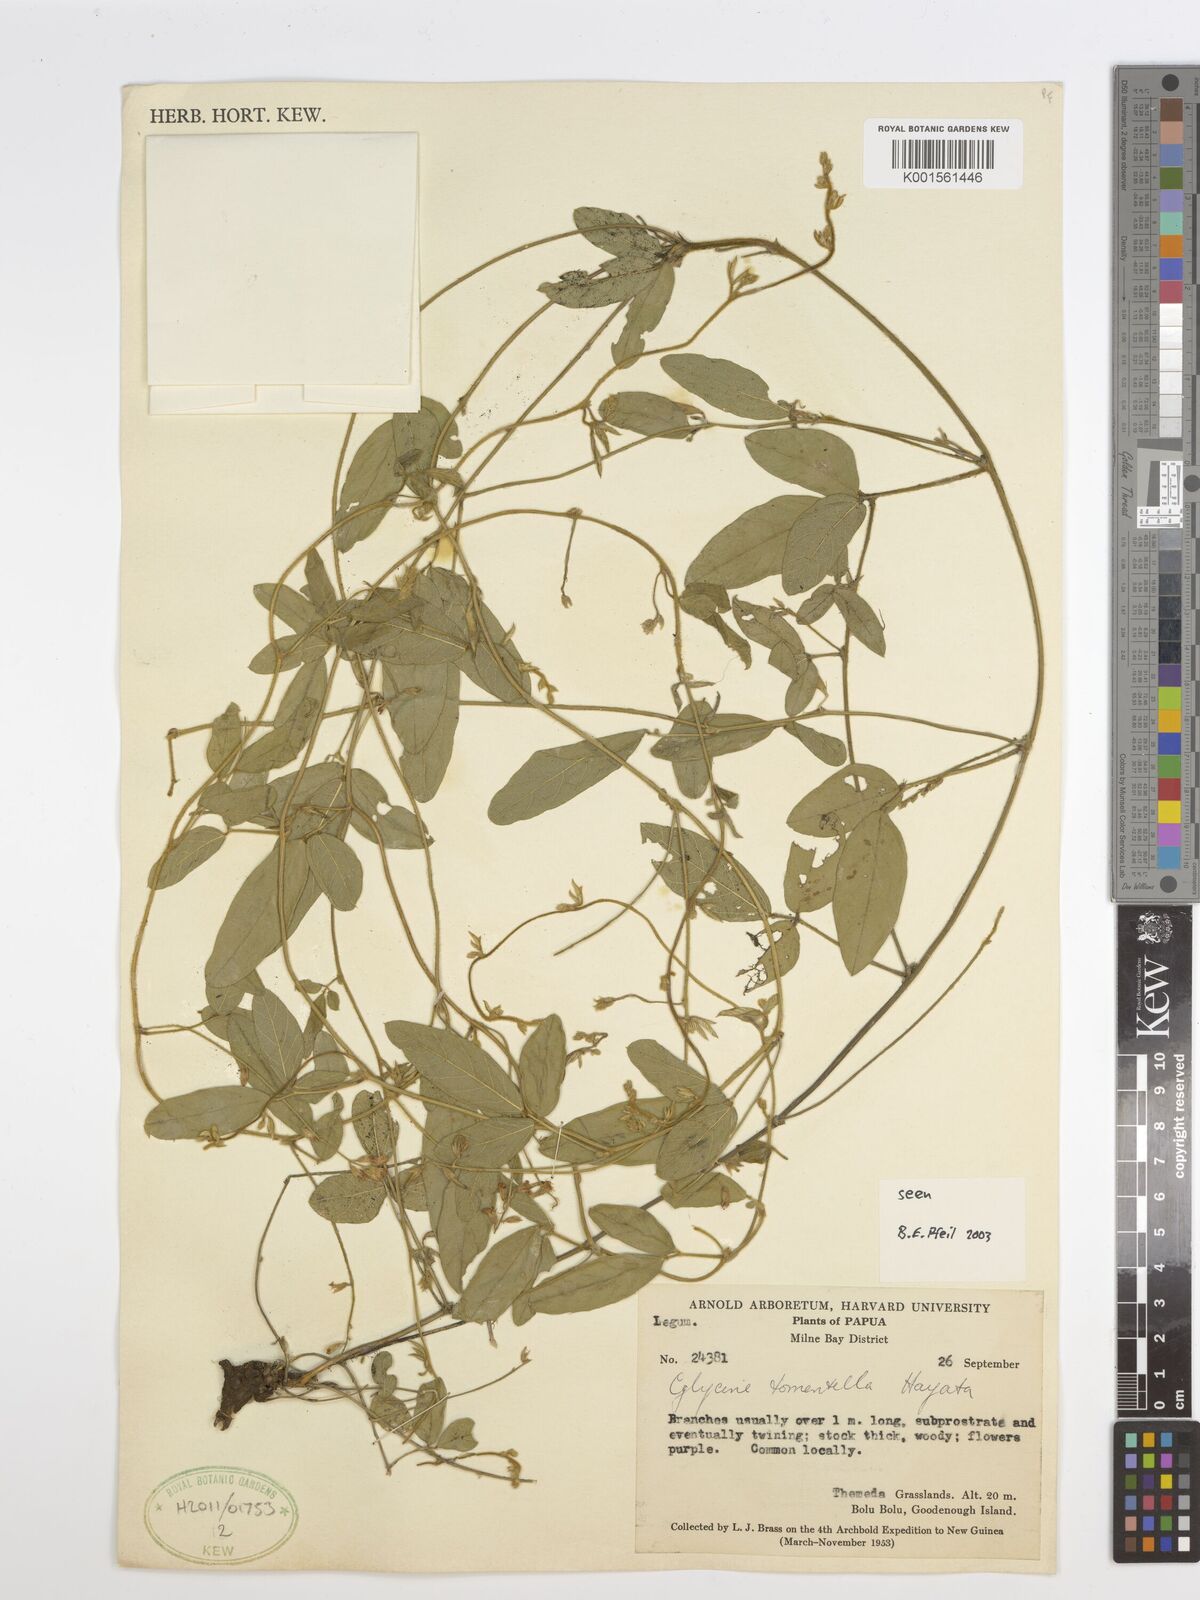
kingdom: Plantae
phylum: Tracheophyta
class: Magnoliopsida
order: Fabales
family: Fabaceae
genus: Glycine
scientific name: Glycine tomentella
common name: Hairy glycine
